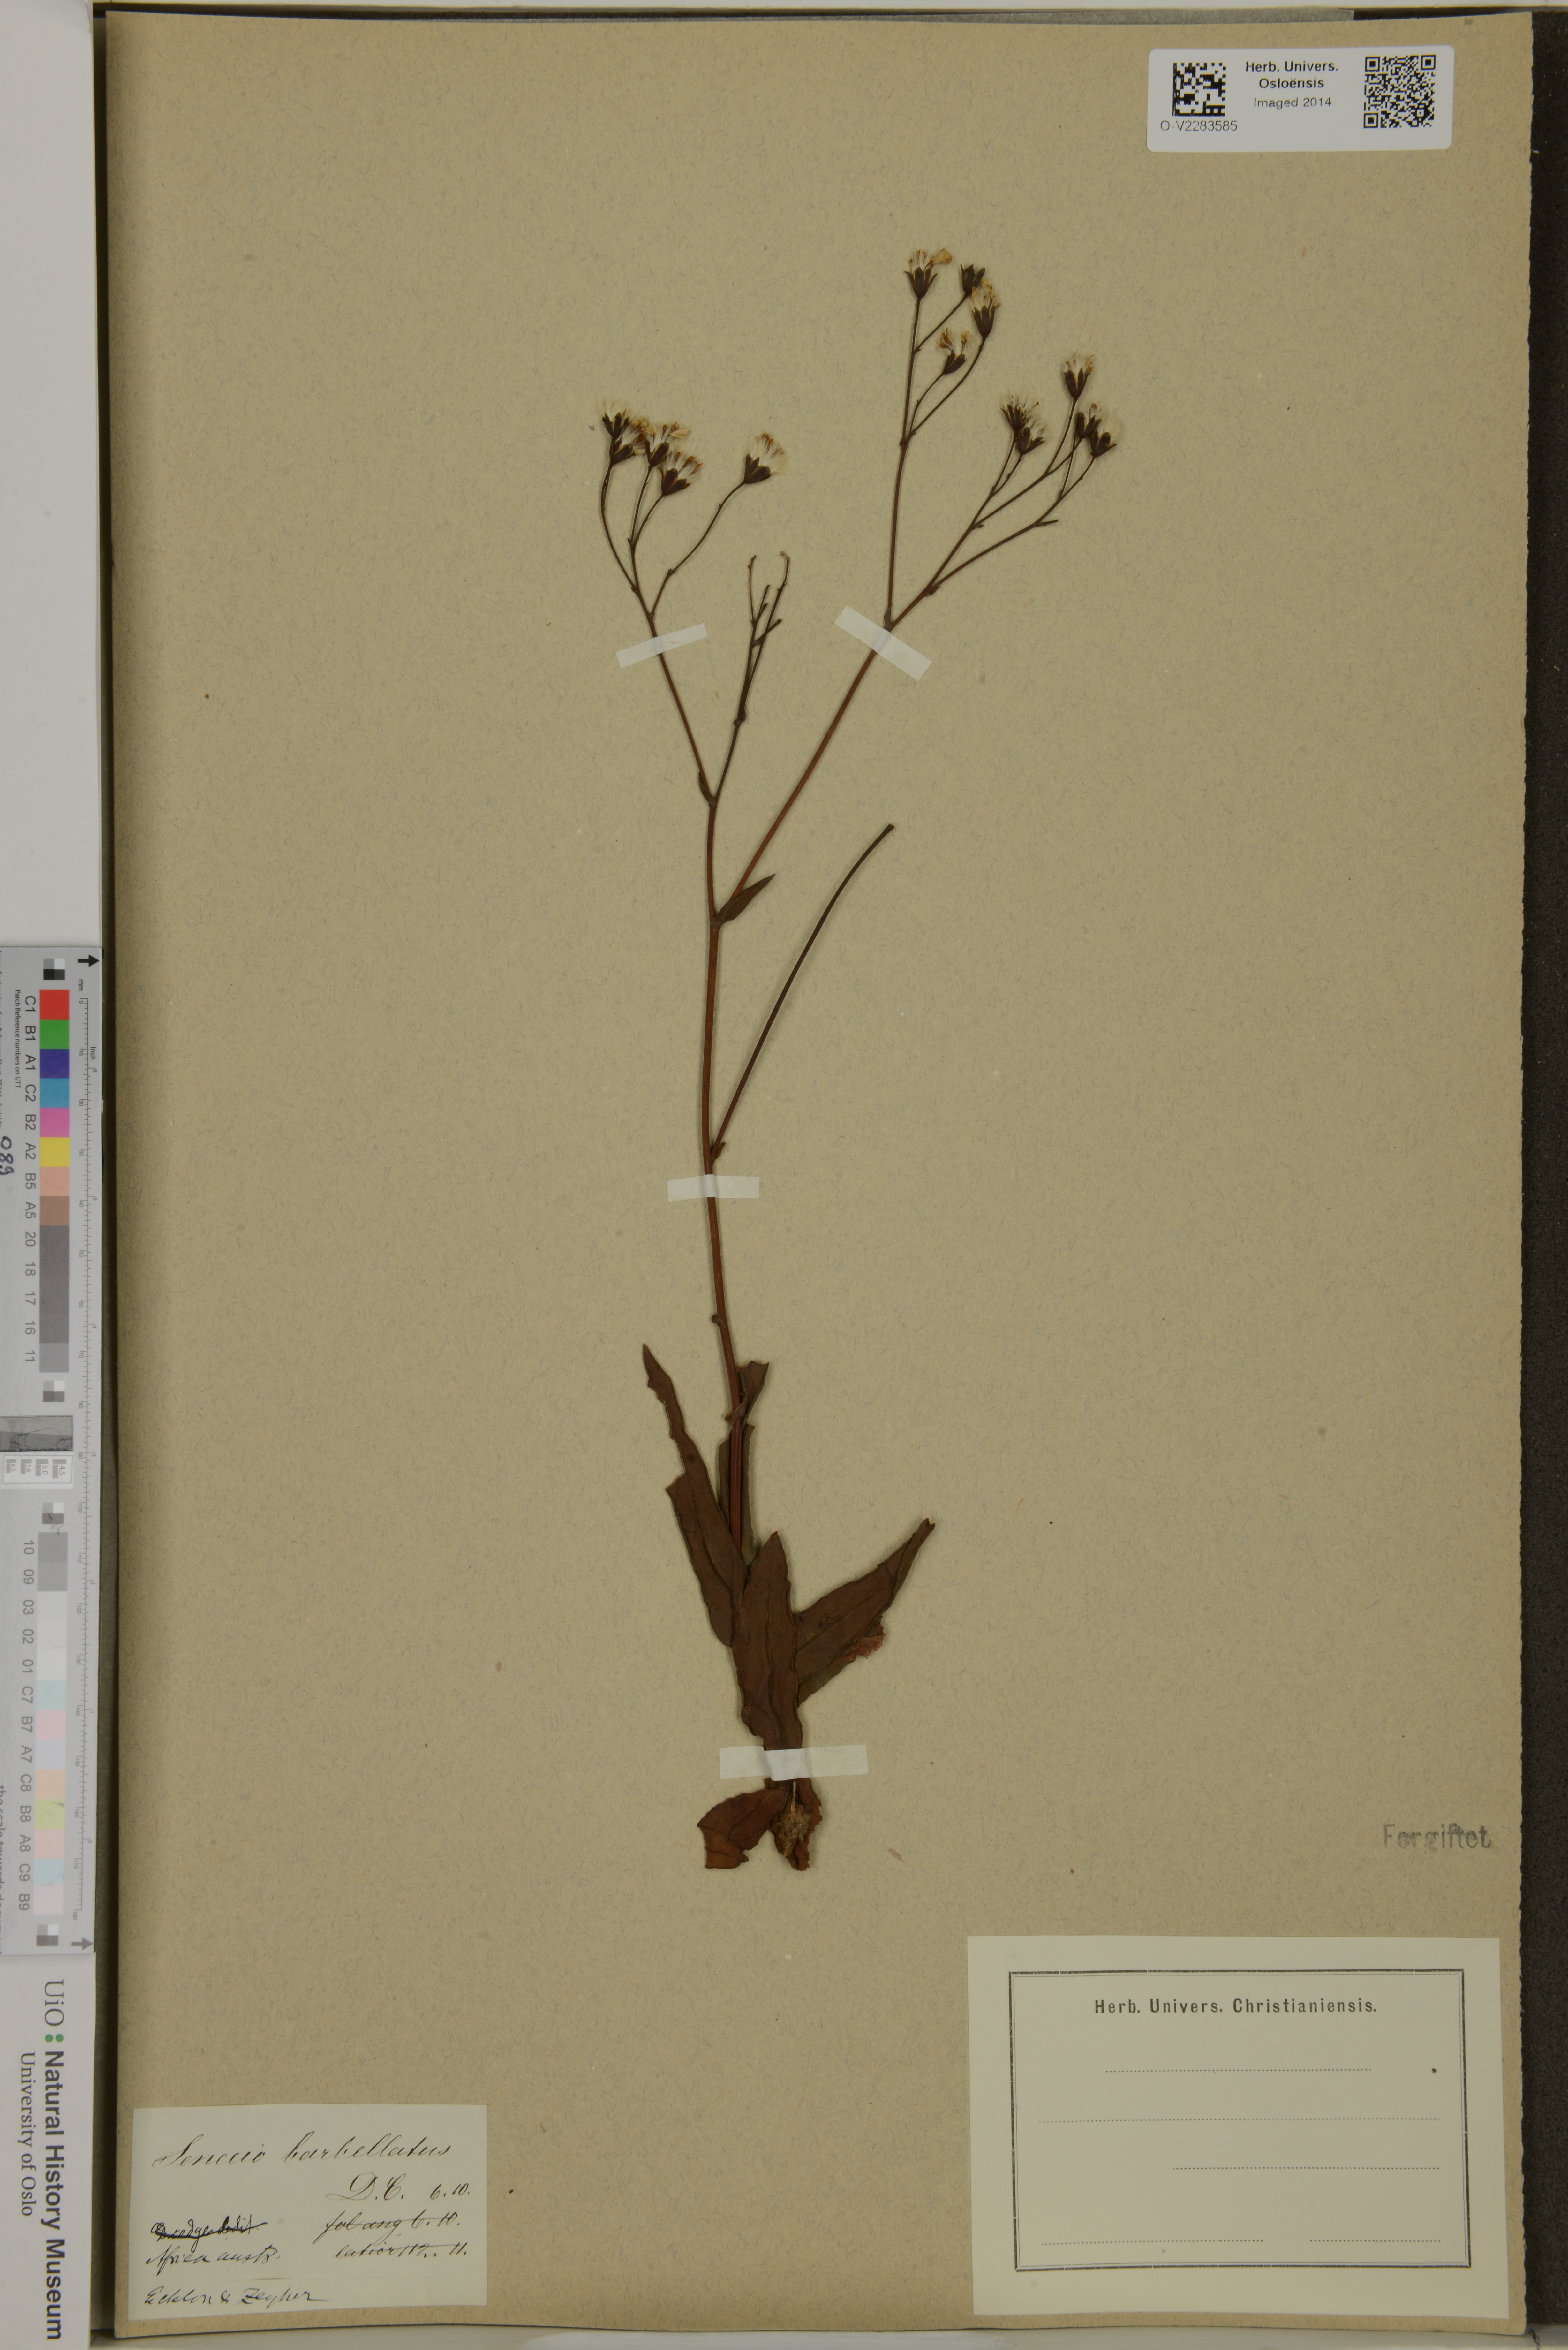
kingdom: Plantae
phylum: Tracheophyta
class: Magnoliopsida
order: Asterales
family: Asteraceae
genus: Senecio
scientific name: Senecio retrorsus
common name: Ragwort
